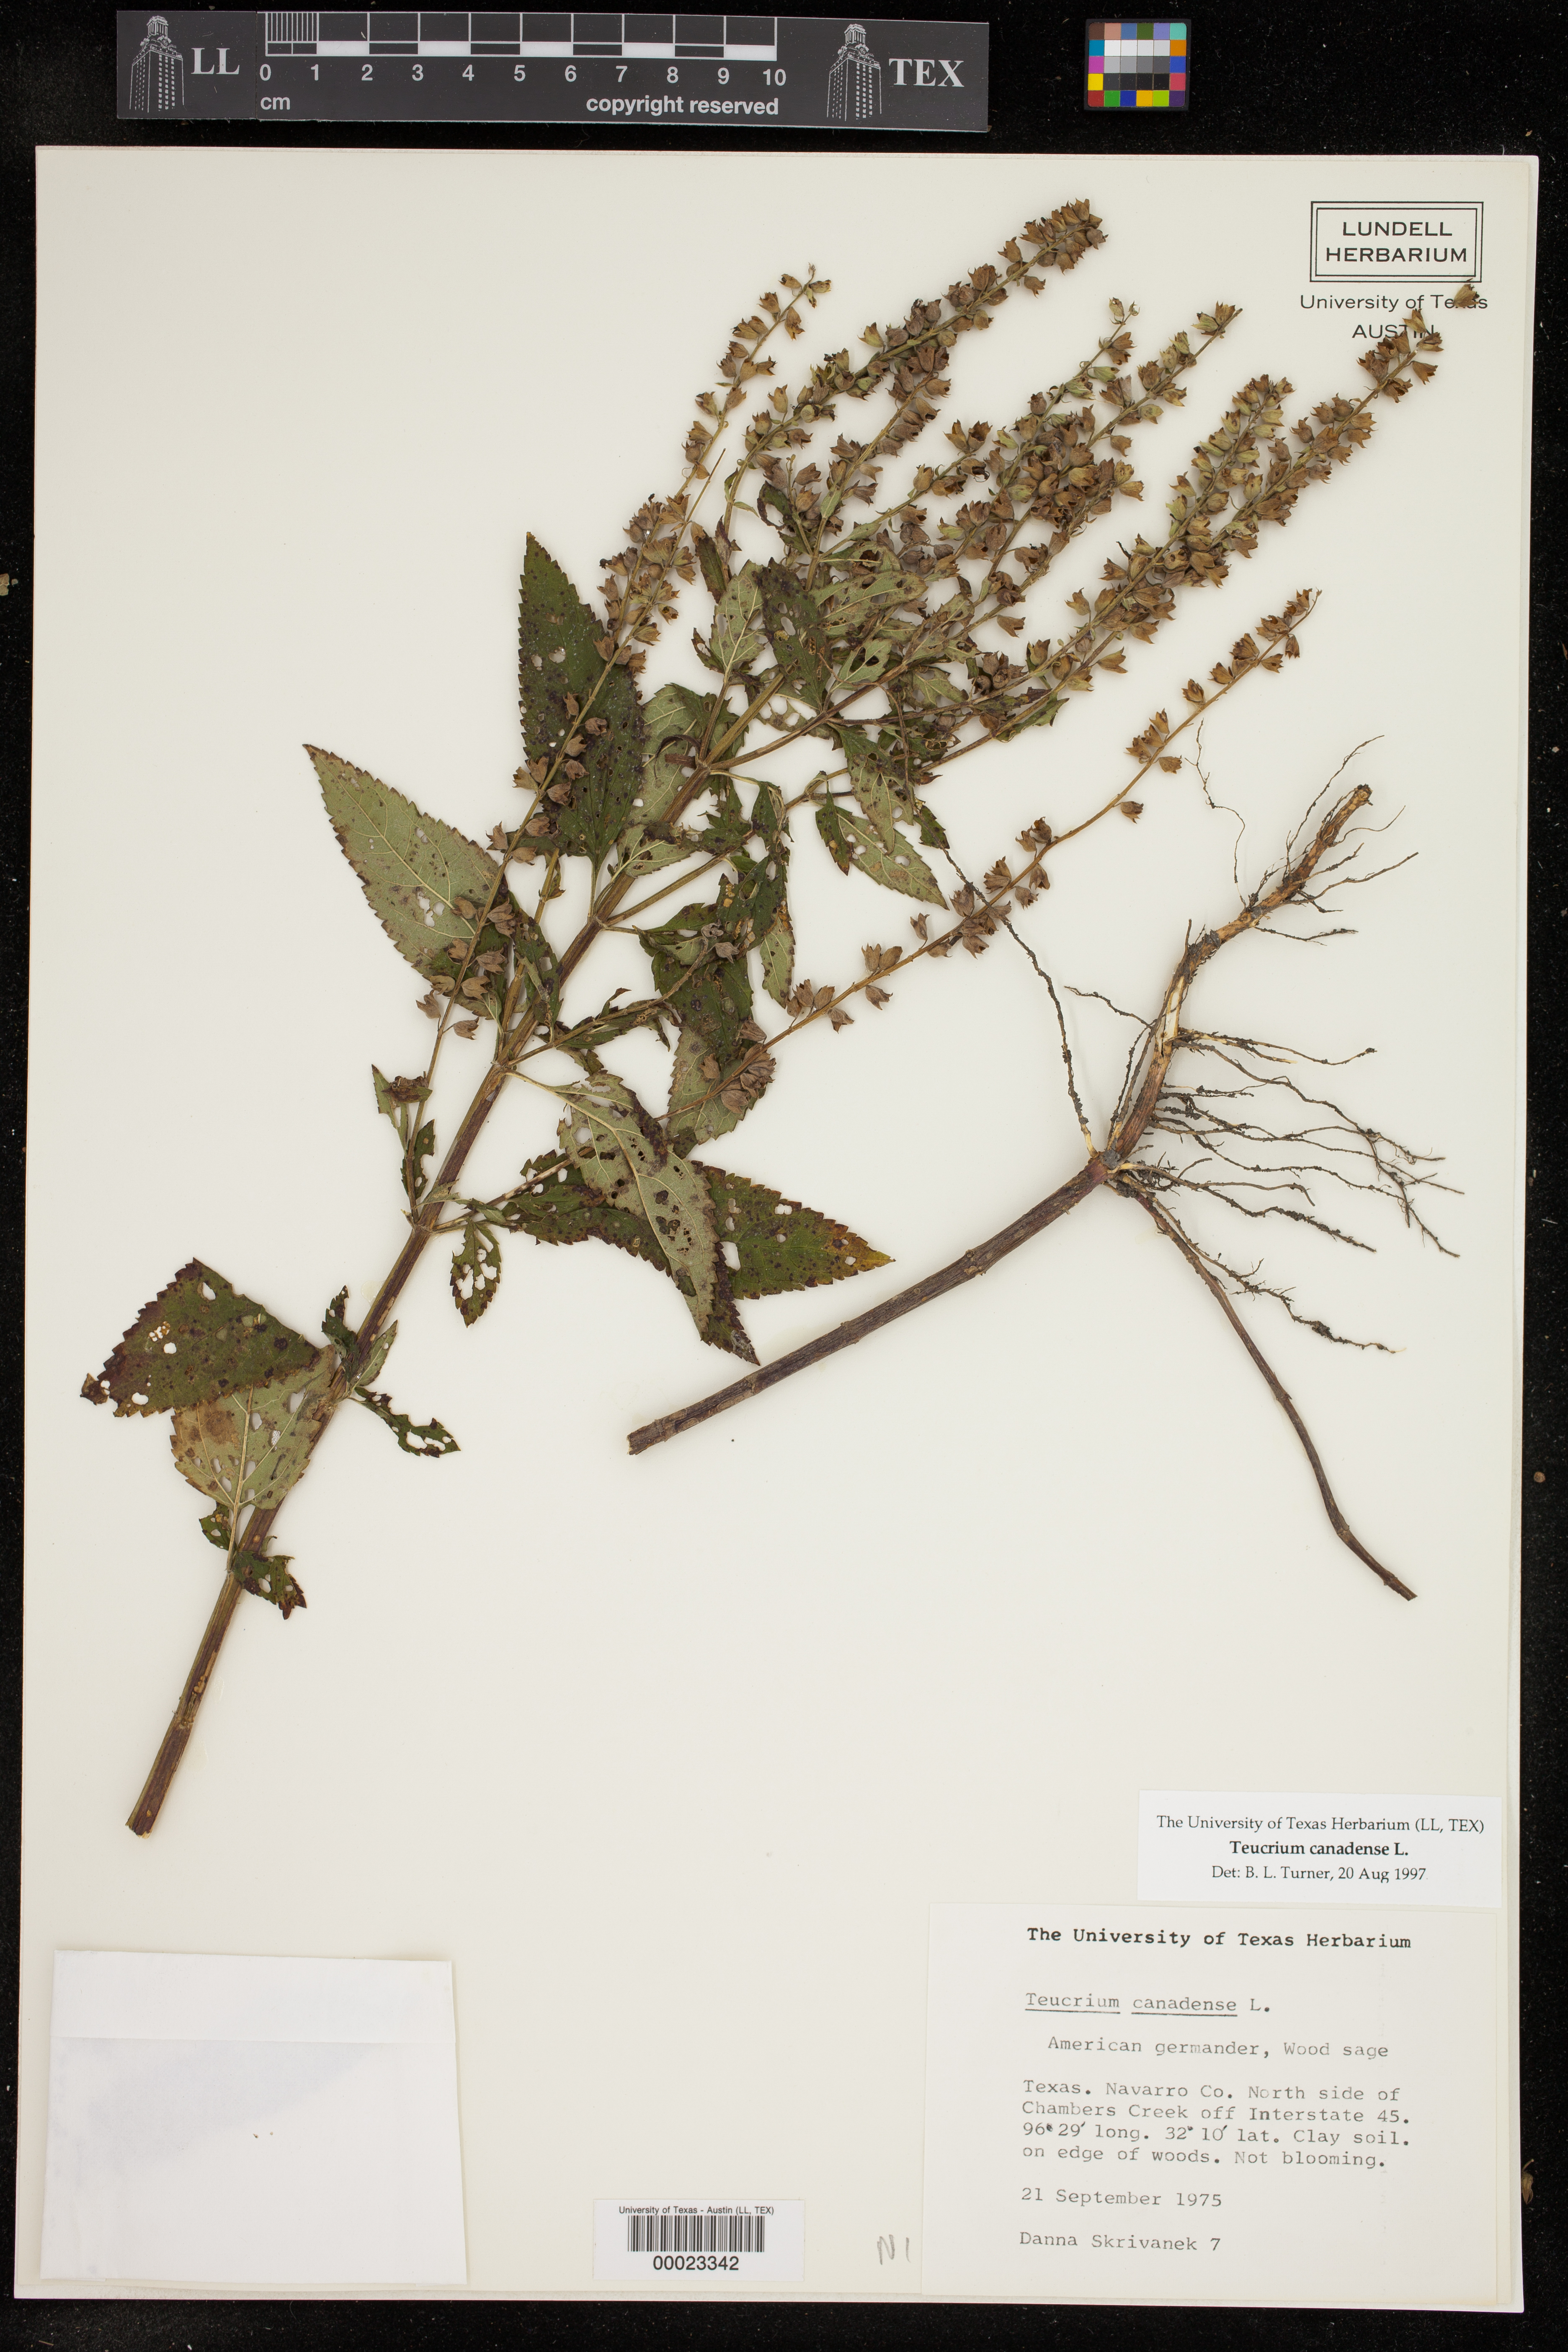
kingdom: Plantae
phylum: Tracheophyta
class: Magnoliopsida
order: Lamiales
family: Lamiaceae
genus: Teucrium
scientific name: Teucrium canadense
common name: American germander
